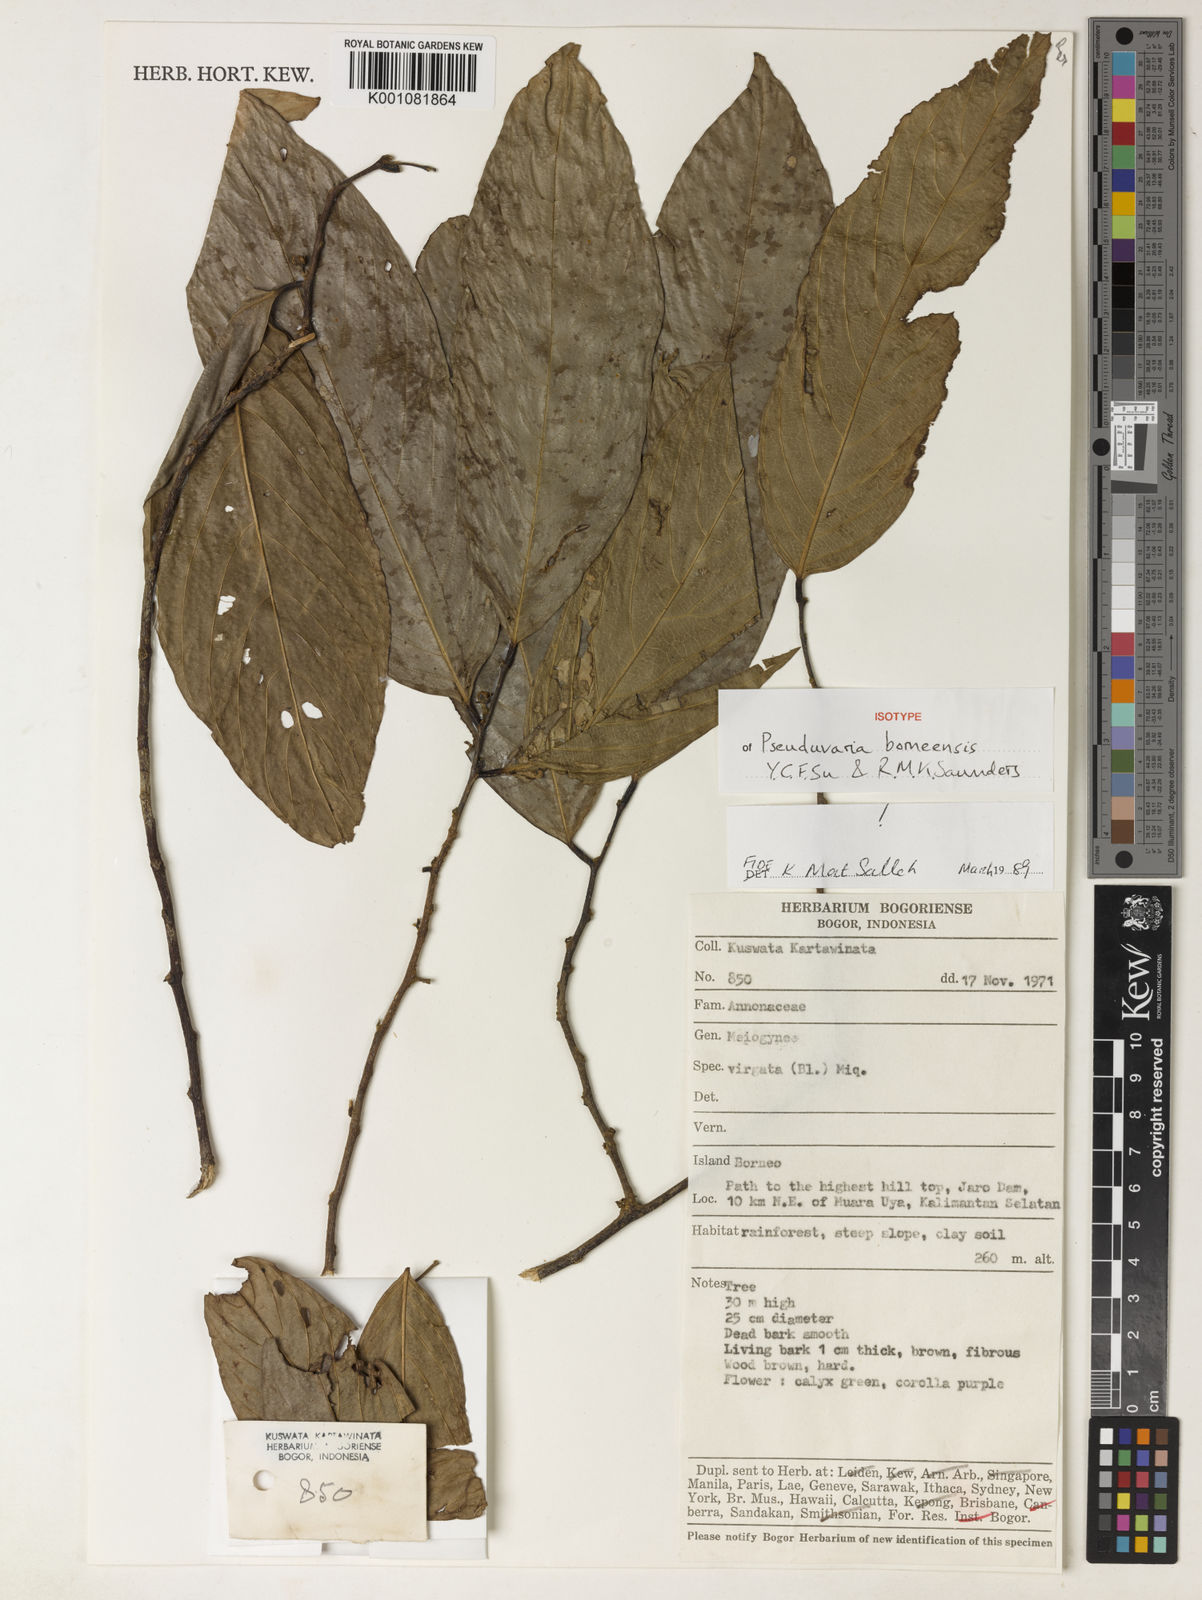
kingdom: Plantae
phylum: Tracheophyta
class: Magnoliopsida
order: Magnoliales
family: Annonaceae
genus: Pseuduvaria
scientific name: Pseuduvaria borneensis
